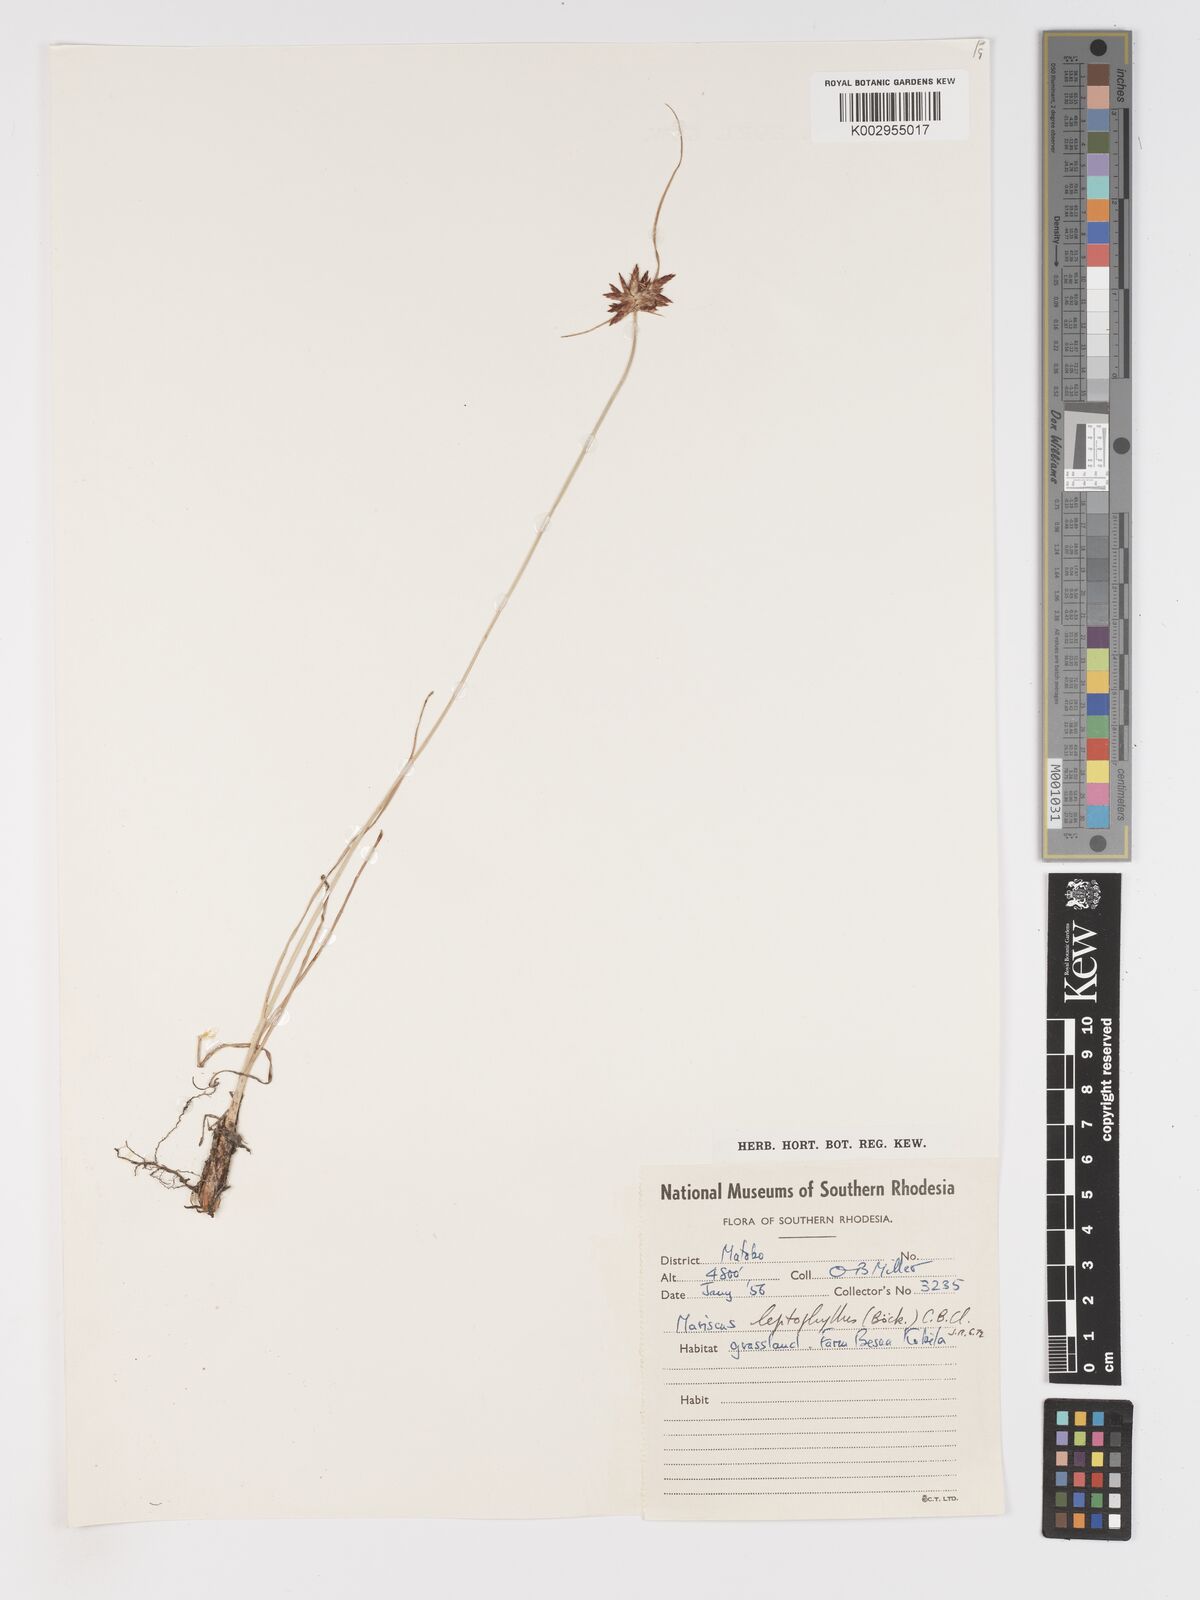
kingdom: Plantae
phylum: Tracheophyta
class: Liliopsida
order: Poales
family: Cyperaceae
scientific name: Cyperaceae
